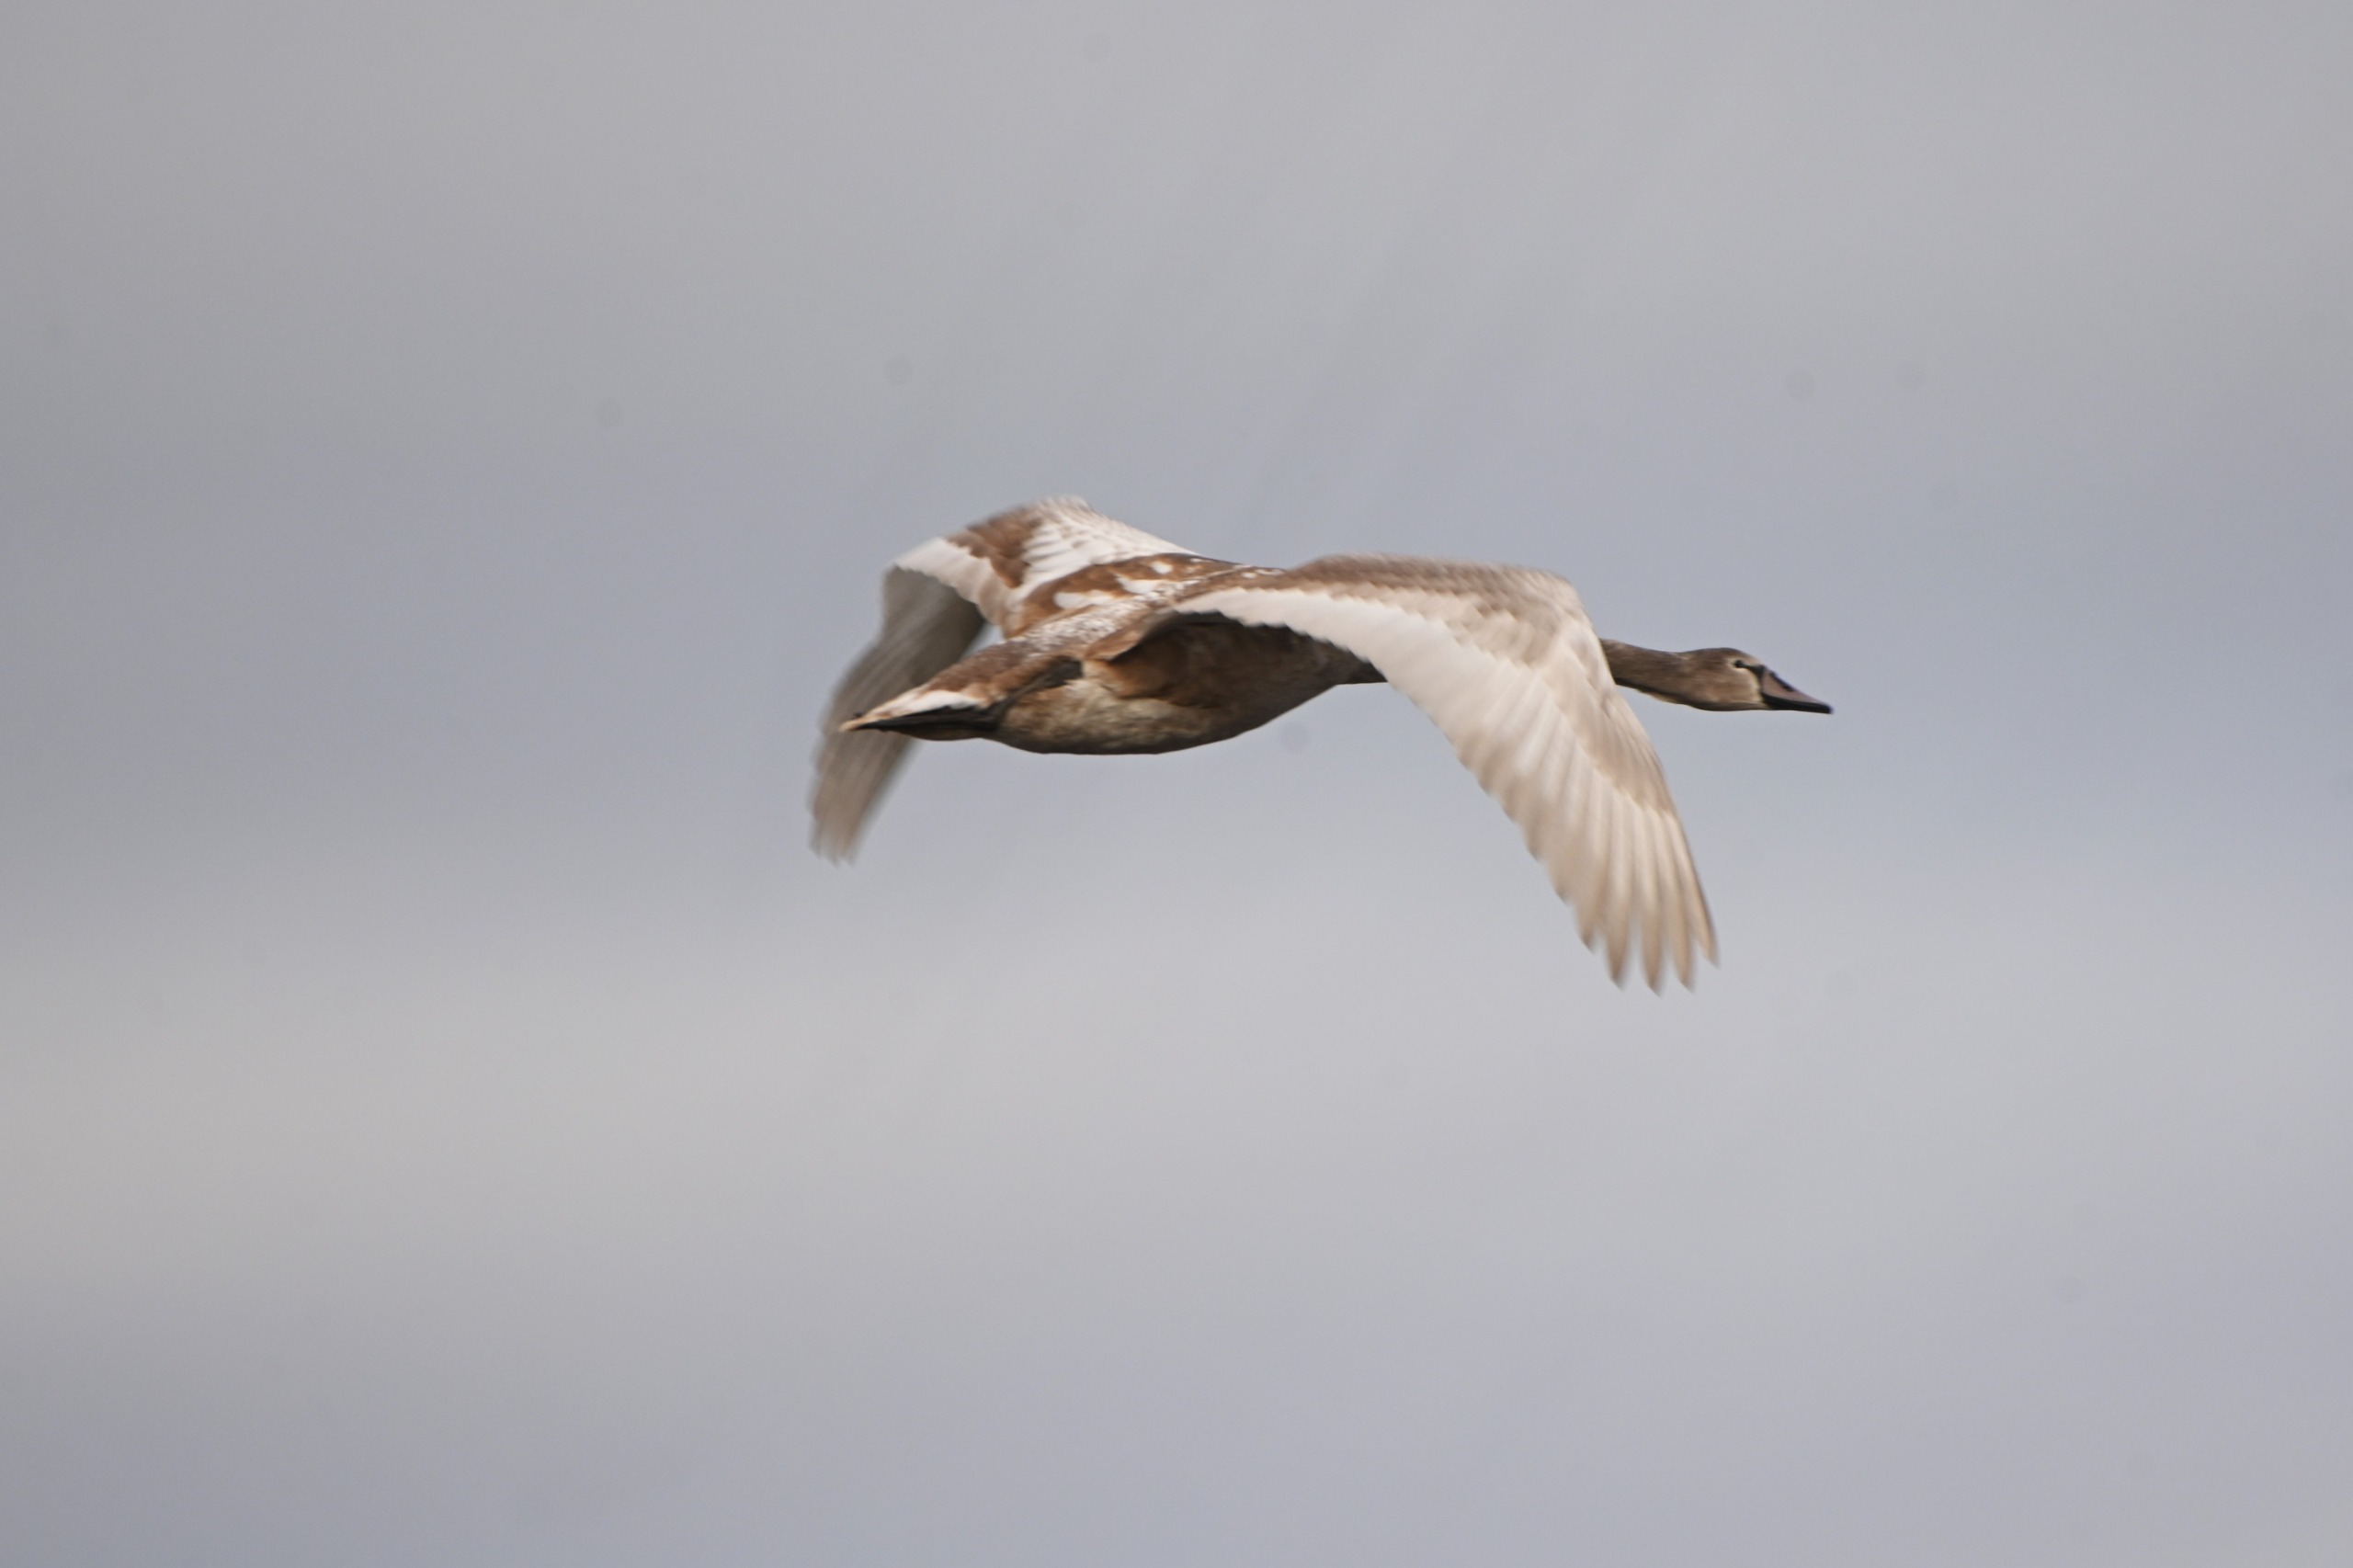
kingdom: Animalia
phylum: Chordata
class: Aves
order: Anseriformes
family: Anatidae
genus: Cygnus
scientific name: Cygnus olor
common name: Knopsvane
